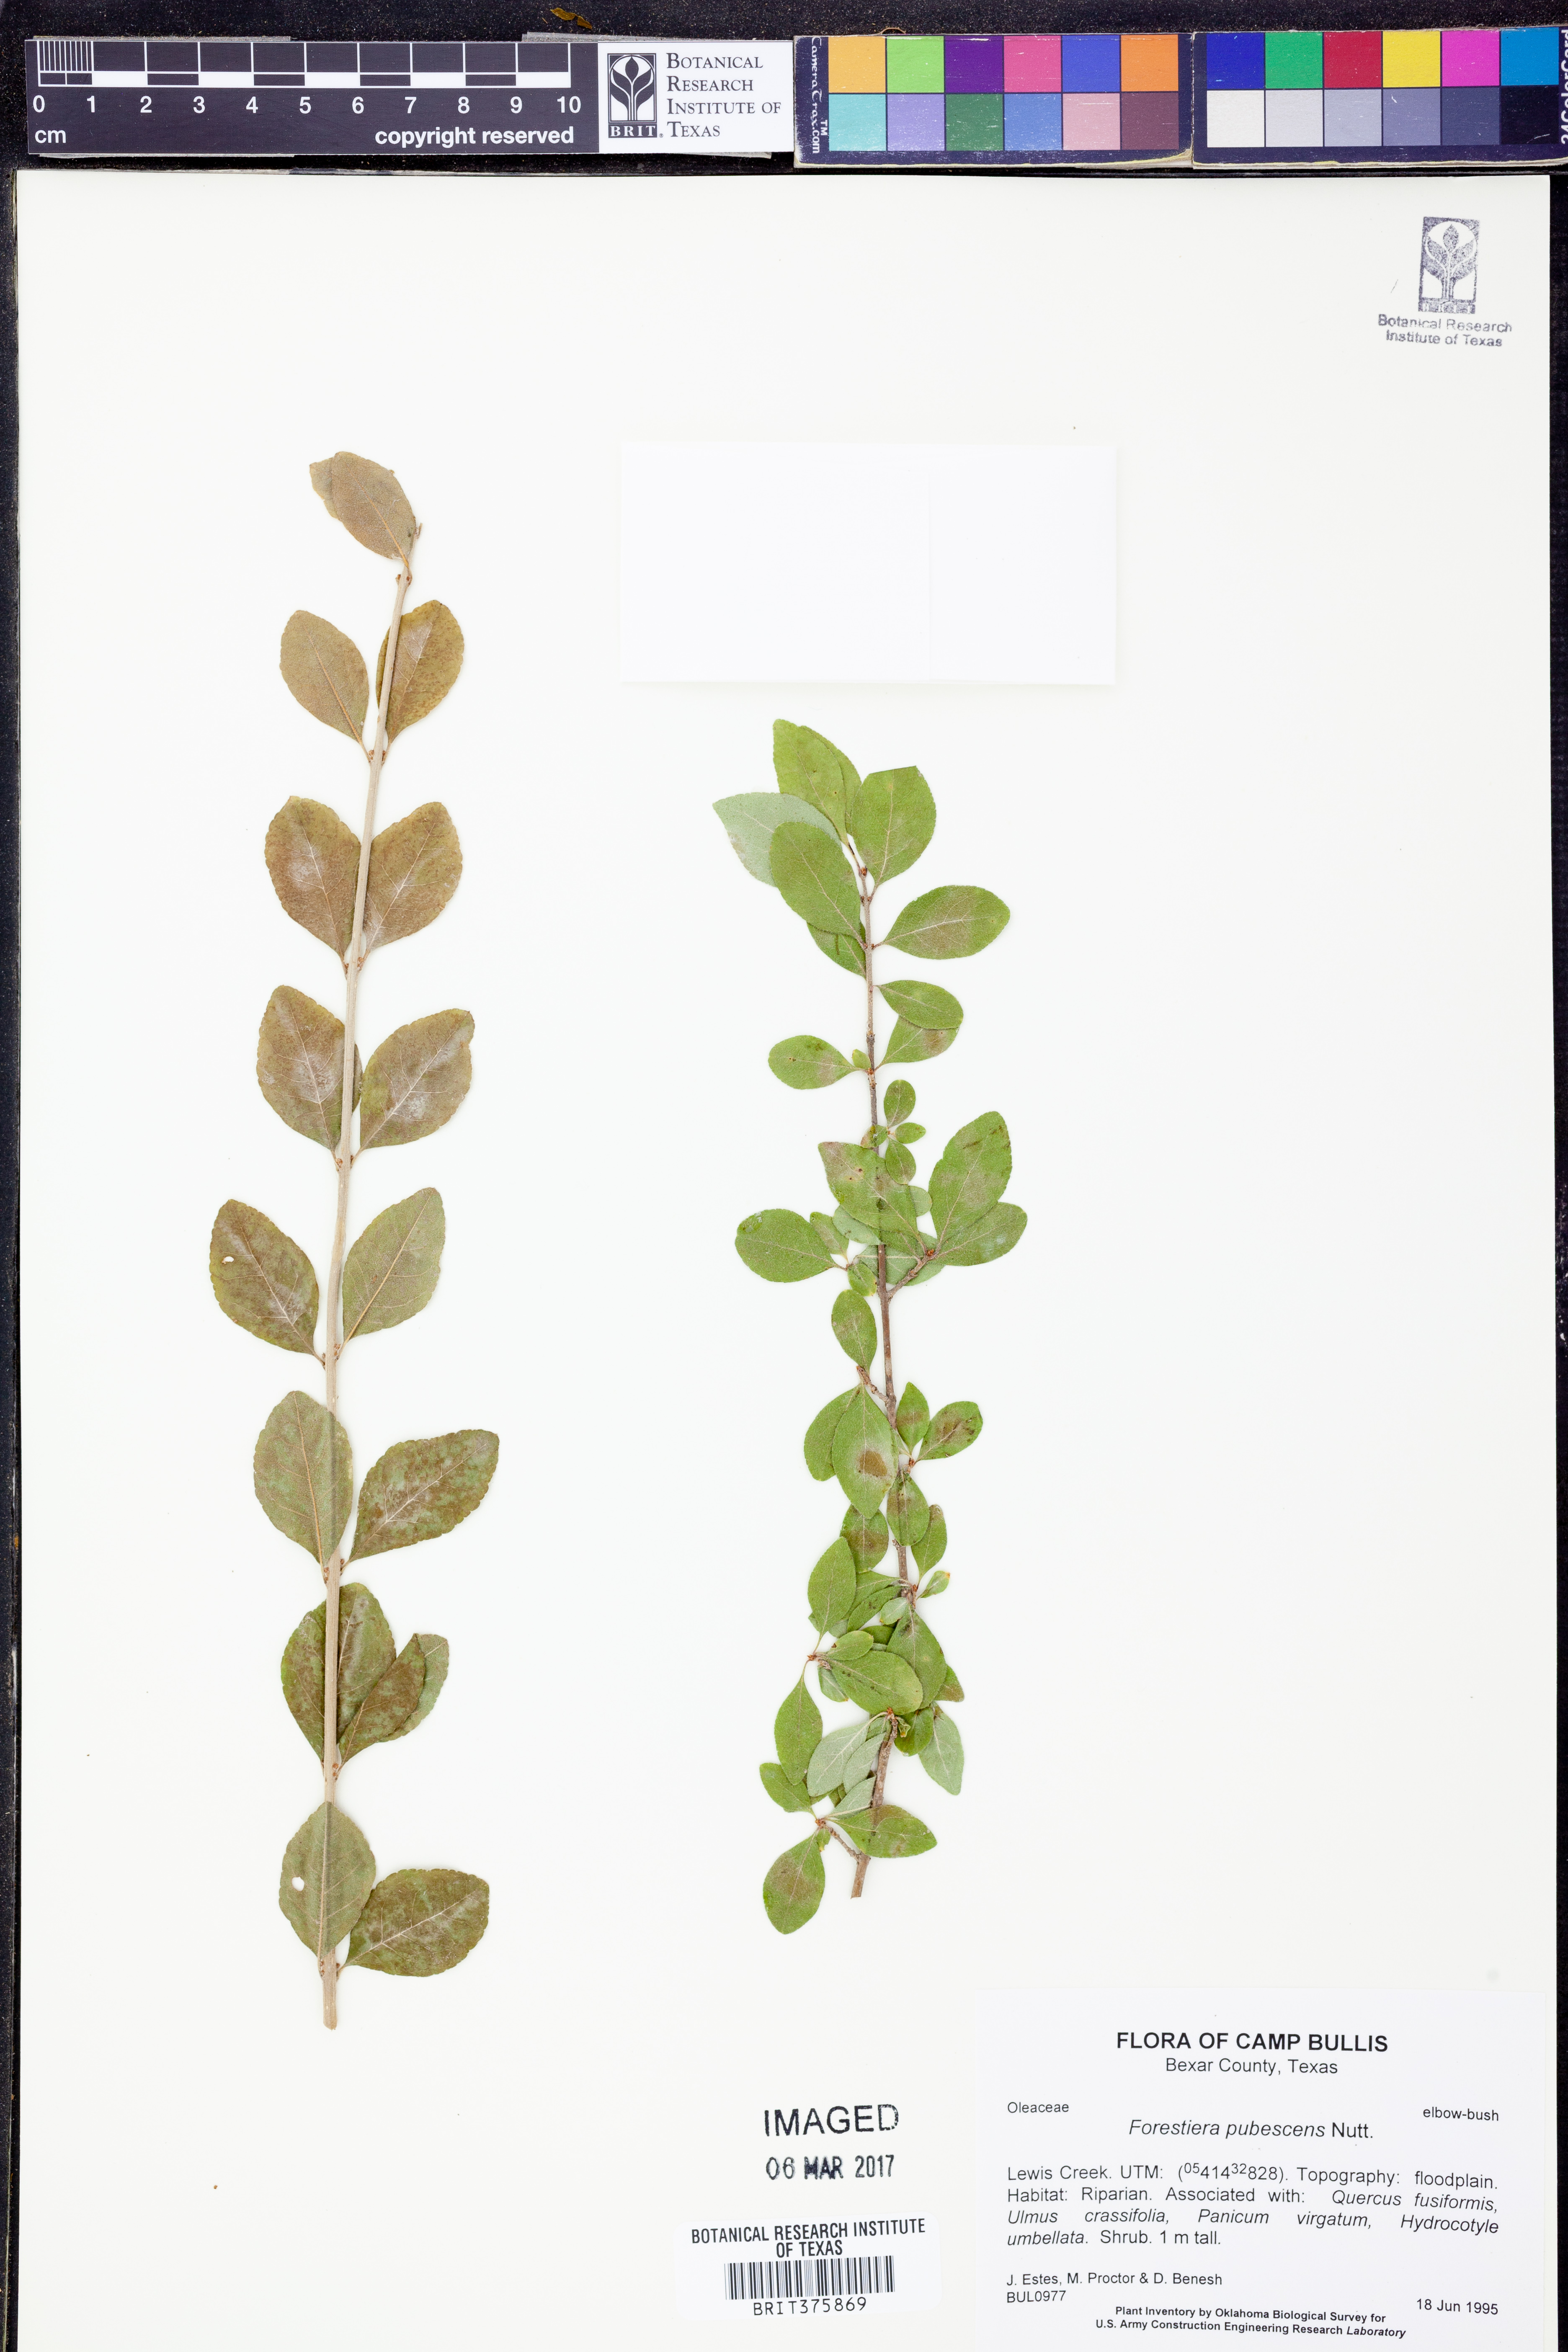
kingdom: Plantae
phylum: Tracheophyta
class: Magnoliopsida
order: Lamiales
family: Oleaceae
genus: Forestiera
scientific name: Forestiera pubescens
